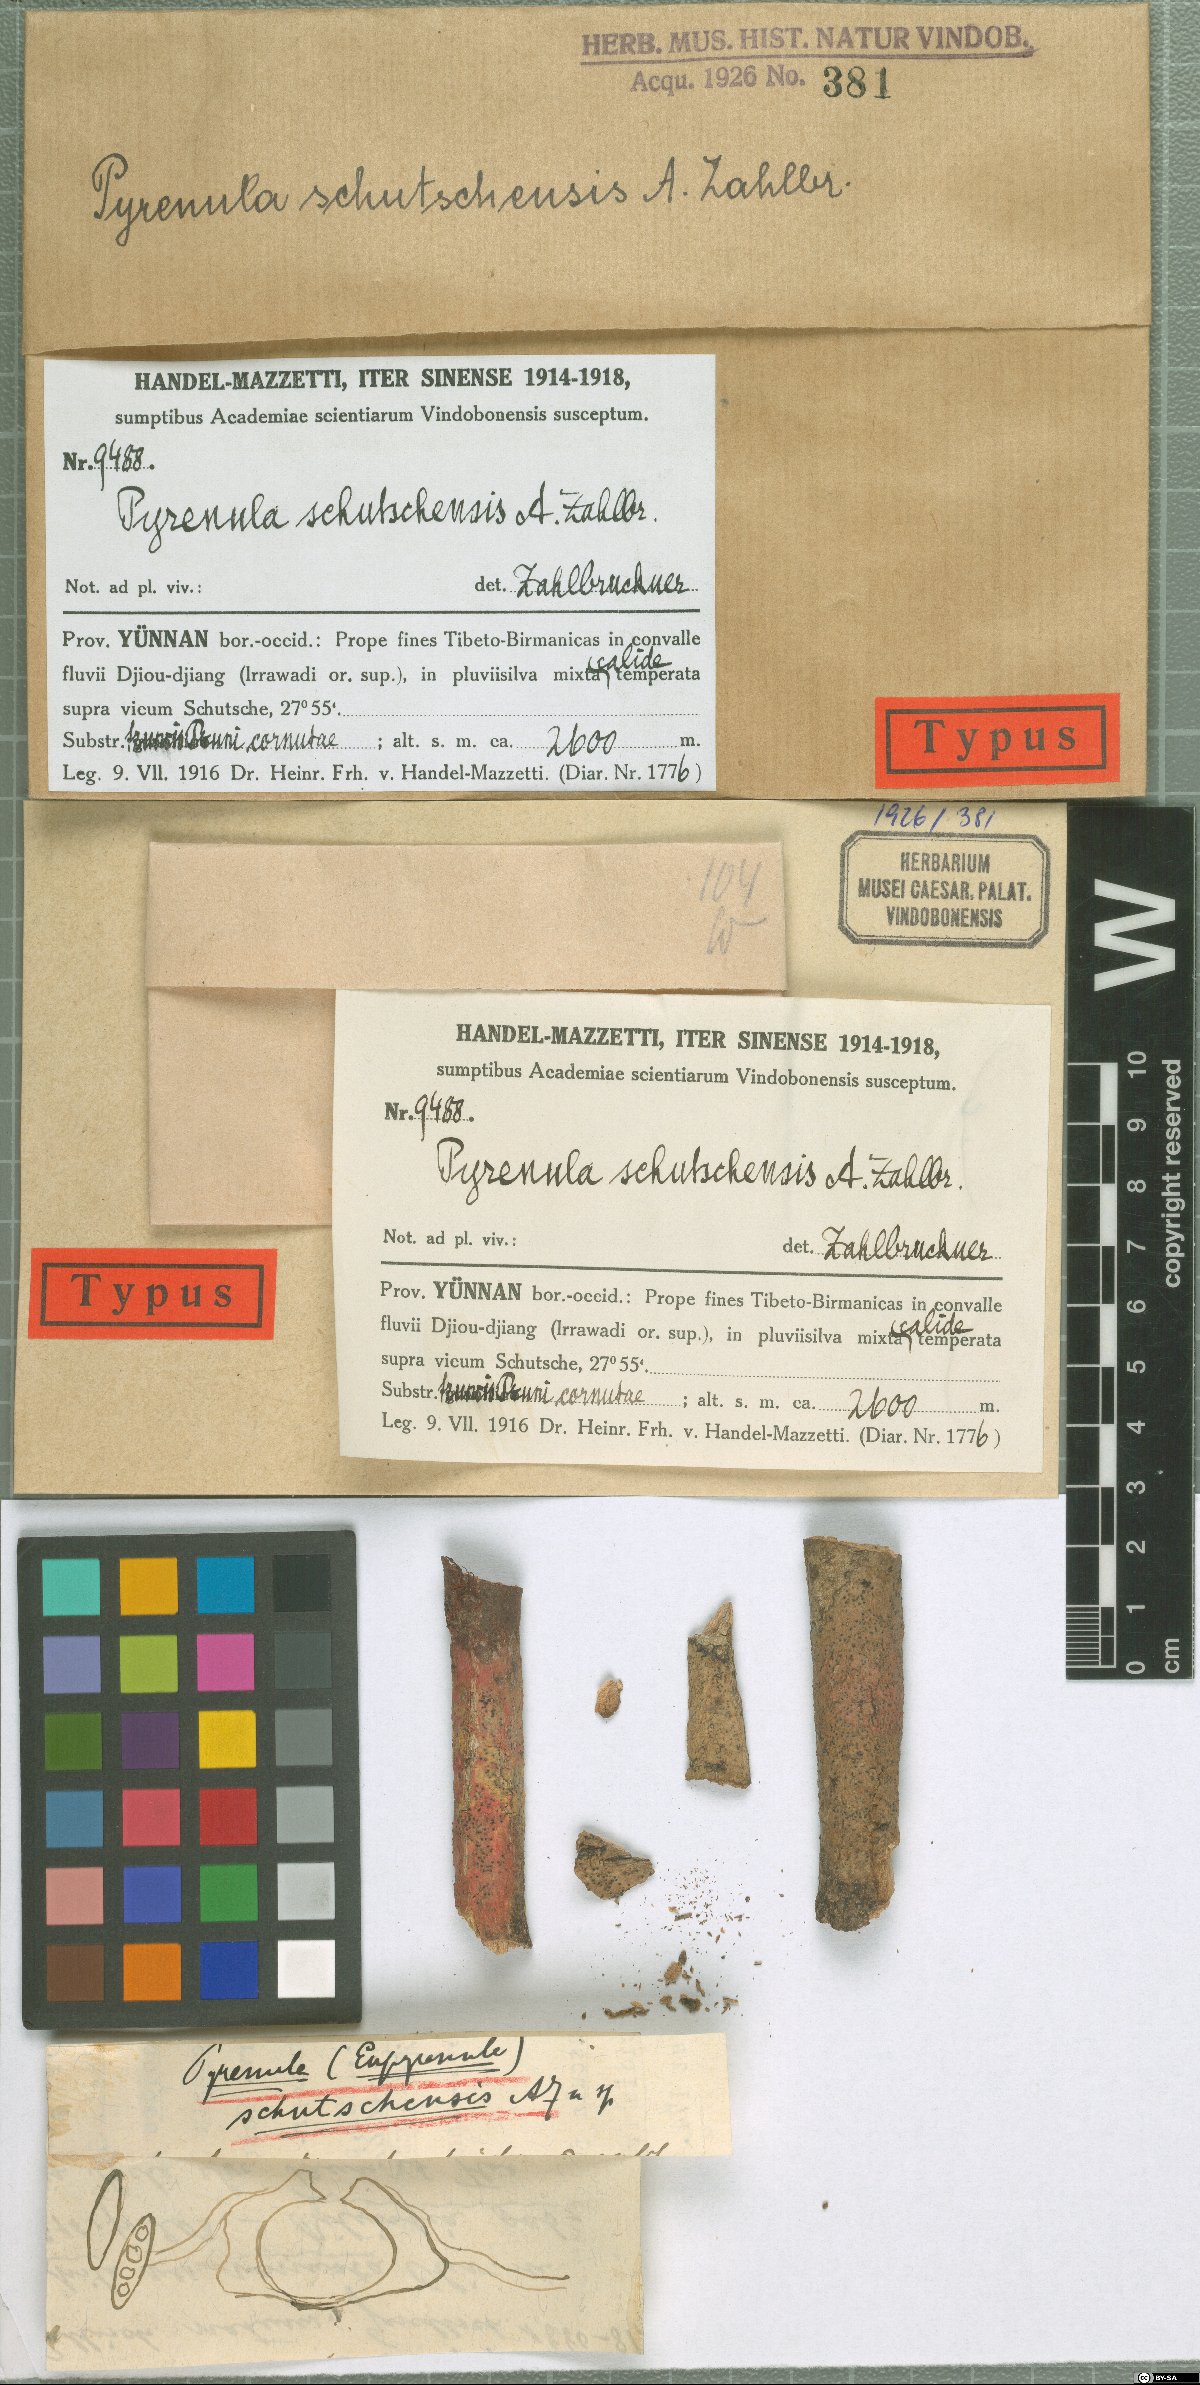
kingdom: Fungi
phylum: Ascomycota
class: Eurotiomycetes
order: Pyrenulales
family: Pyrenulaceae
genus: Pyrenula
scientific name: Pyrenula
